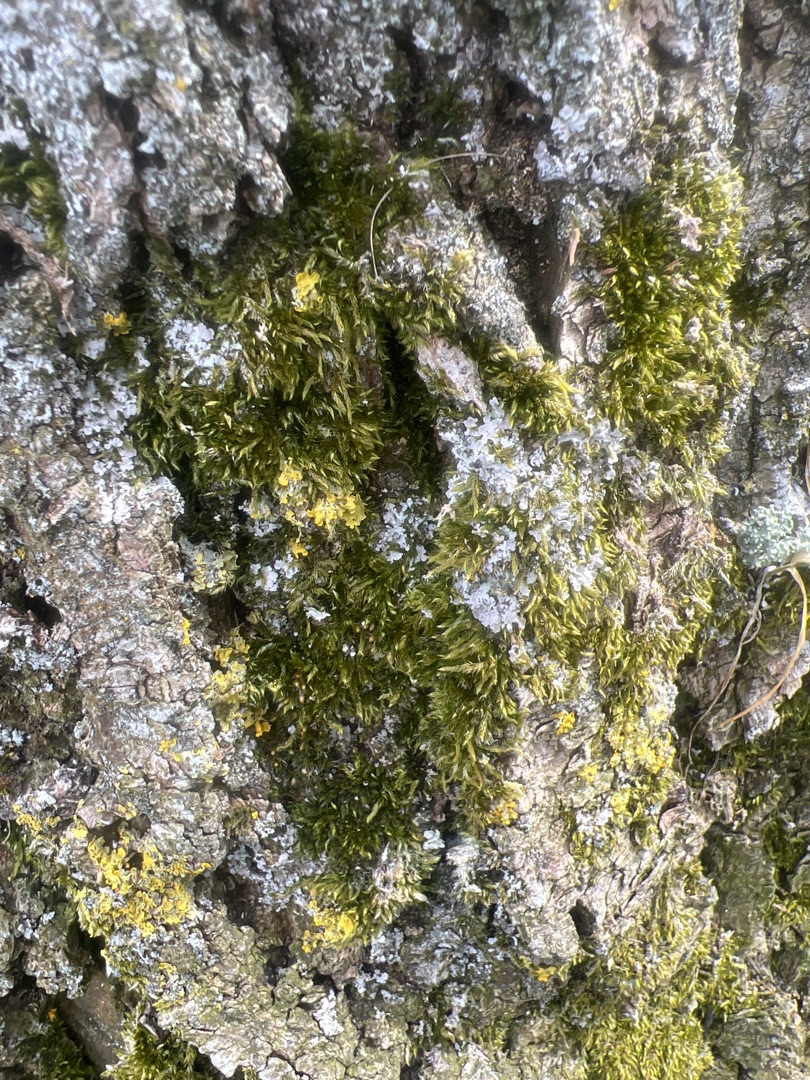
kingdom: Plantae
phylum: Bryophyta
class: Bryopsida
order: Hypnales
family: Hypnaceae
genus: Hypnum
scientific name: Hypnum cupressiforme
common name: Almindelig cypresmos
